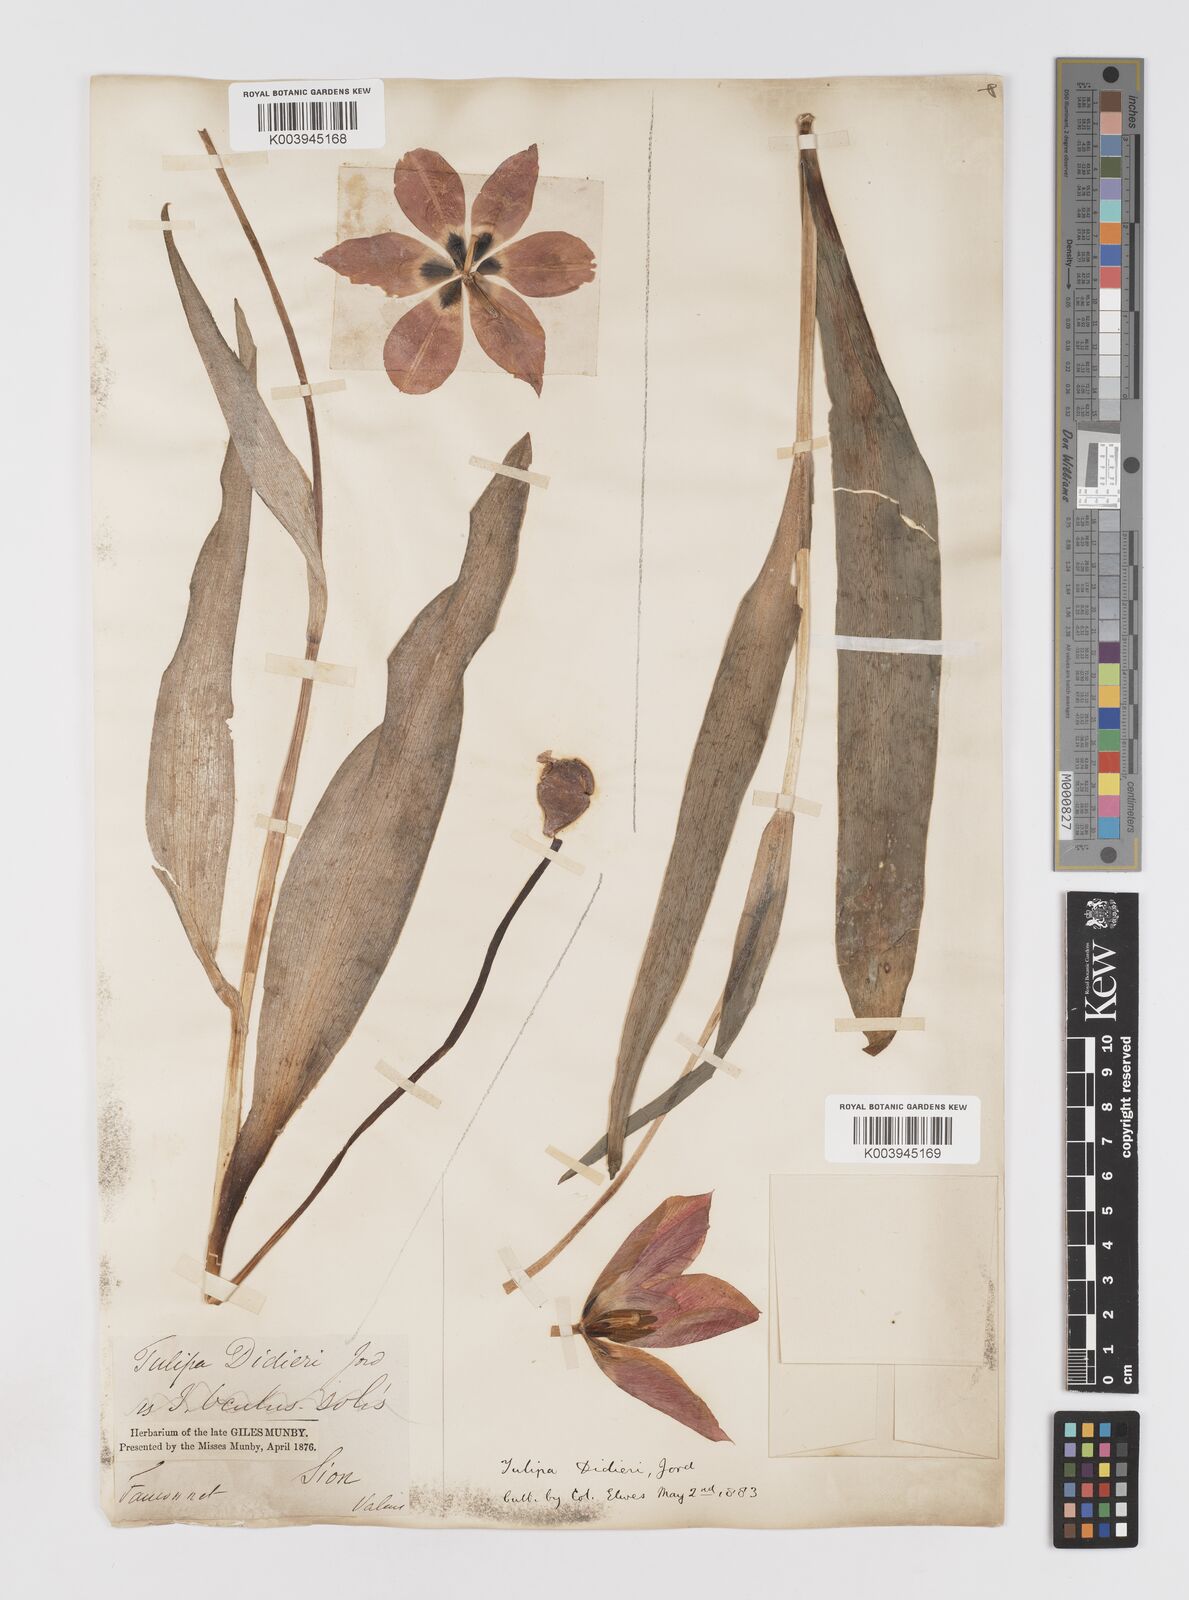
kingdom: Plantae
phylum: Tracheophyta
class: Liliopsida
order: Liliales
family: Liliaceae
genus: Tulipa
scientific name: Tulipa gesneriana
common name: Garden tulip
